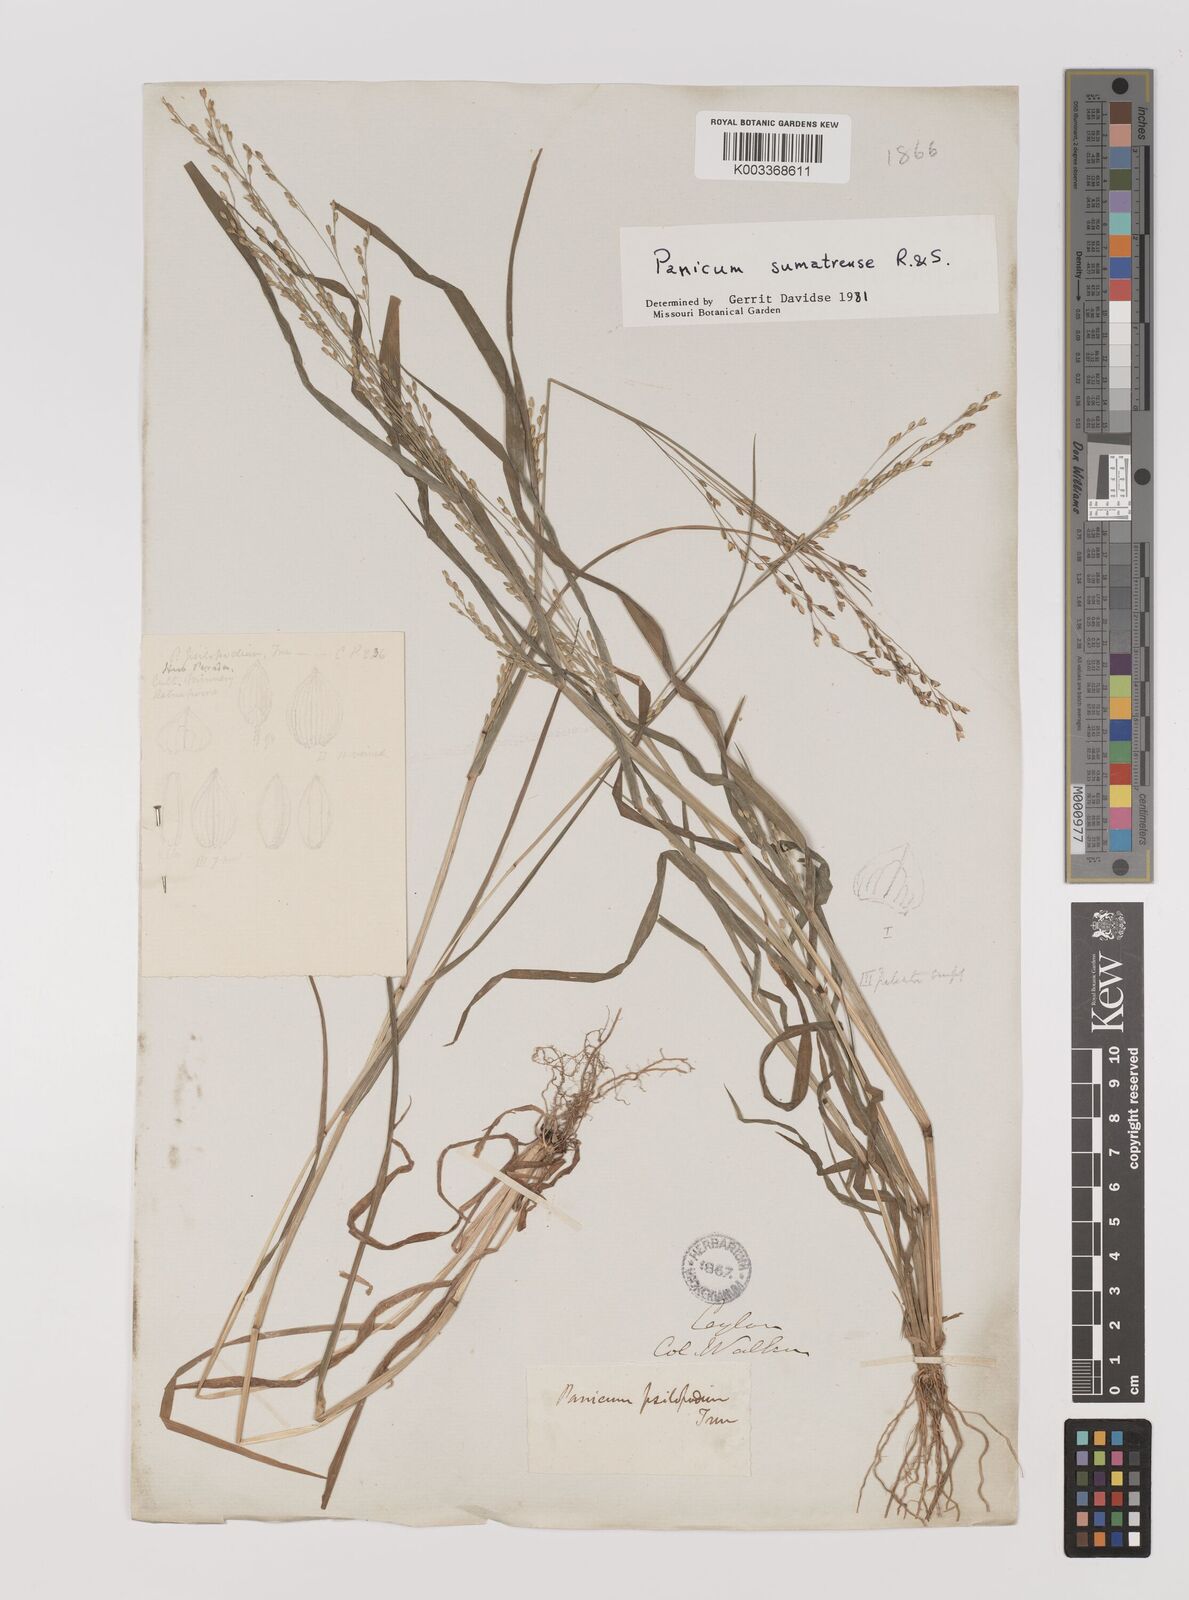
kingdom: Plantae
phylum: Tracheophyta
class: Liliopsida
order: Poales
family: Poaceae
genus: Panicum
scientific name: Panicum sumatrense
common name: Little millet
